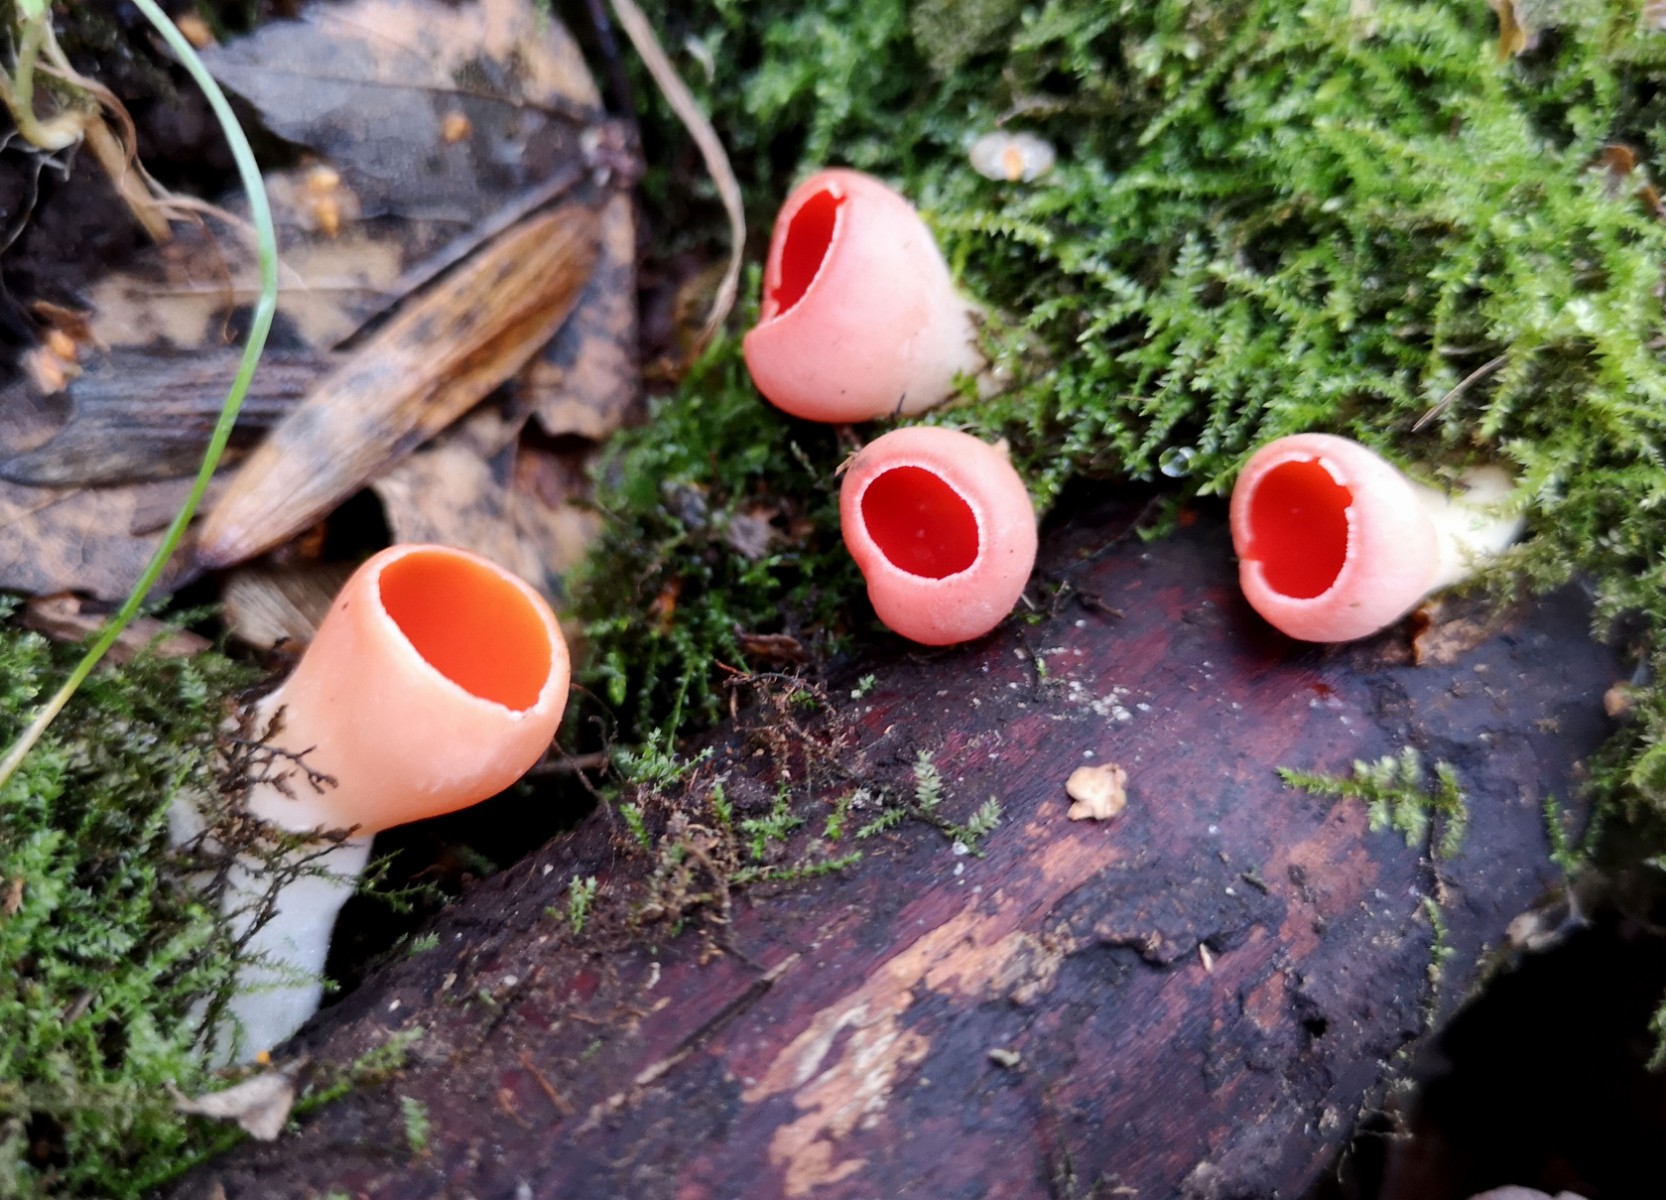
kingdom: Fungi
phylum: Ascomycota
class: Pezizomycetes
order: Pezizales
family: Sarcoscyphaceae
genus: Sarcoscypha
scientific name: Sarcoscypha austriaca
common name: krølhåret pragtbæger
